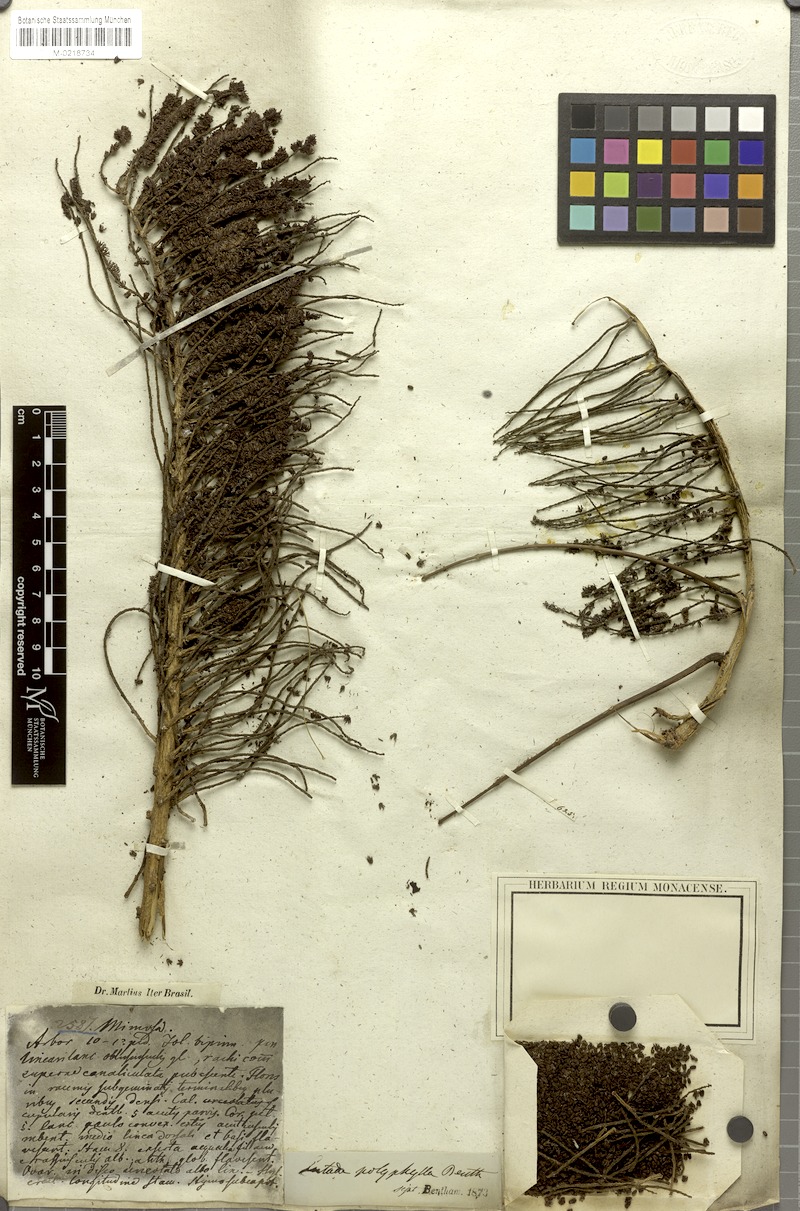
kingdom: Plantae
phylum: Tracheophyta
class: Magnoliopsida
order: Fabales
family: Fabaceae
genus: Entada
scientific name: Entada polyphylla
